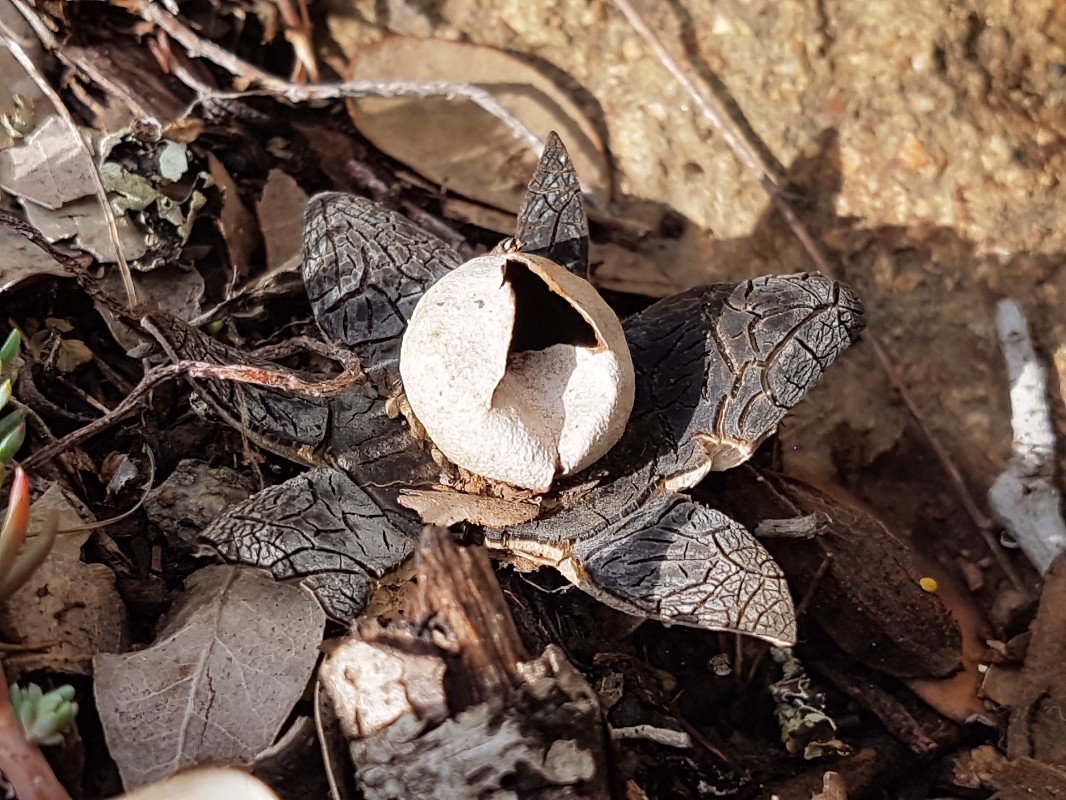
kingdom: Fungi
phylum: Basidiomycota
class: Agaricomycetes
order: Boletales
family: Diplocystidiaceae
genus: Astraeus
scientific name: Astraeus hygrometricus
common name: Barometer earthstar
